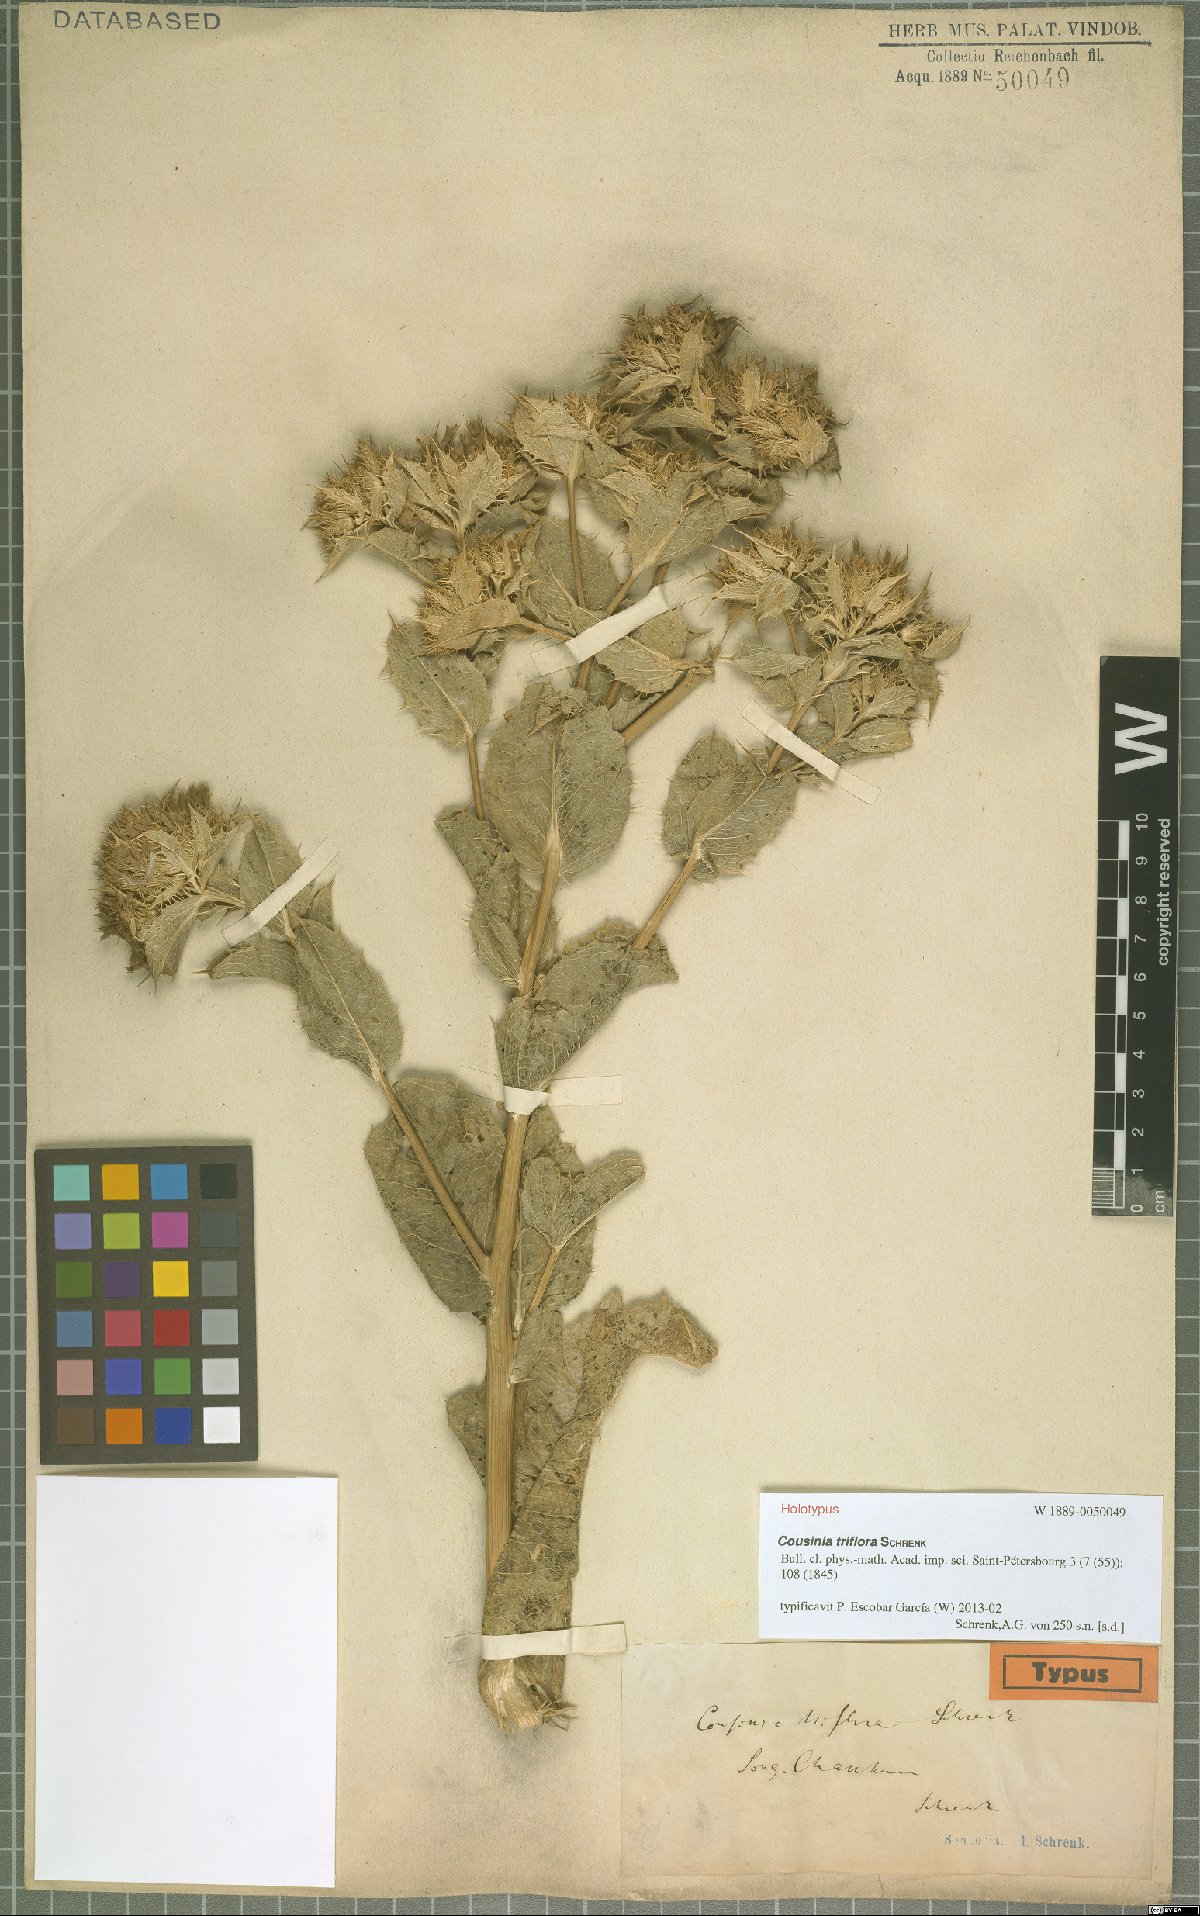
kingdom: Plantae
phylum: Tracheophyta
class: Magnoliopsida
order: Asterales
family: Asteraceae
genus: Arctium
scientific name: Arctium triflorum
